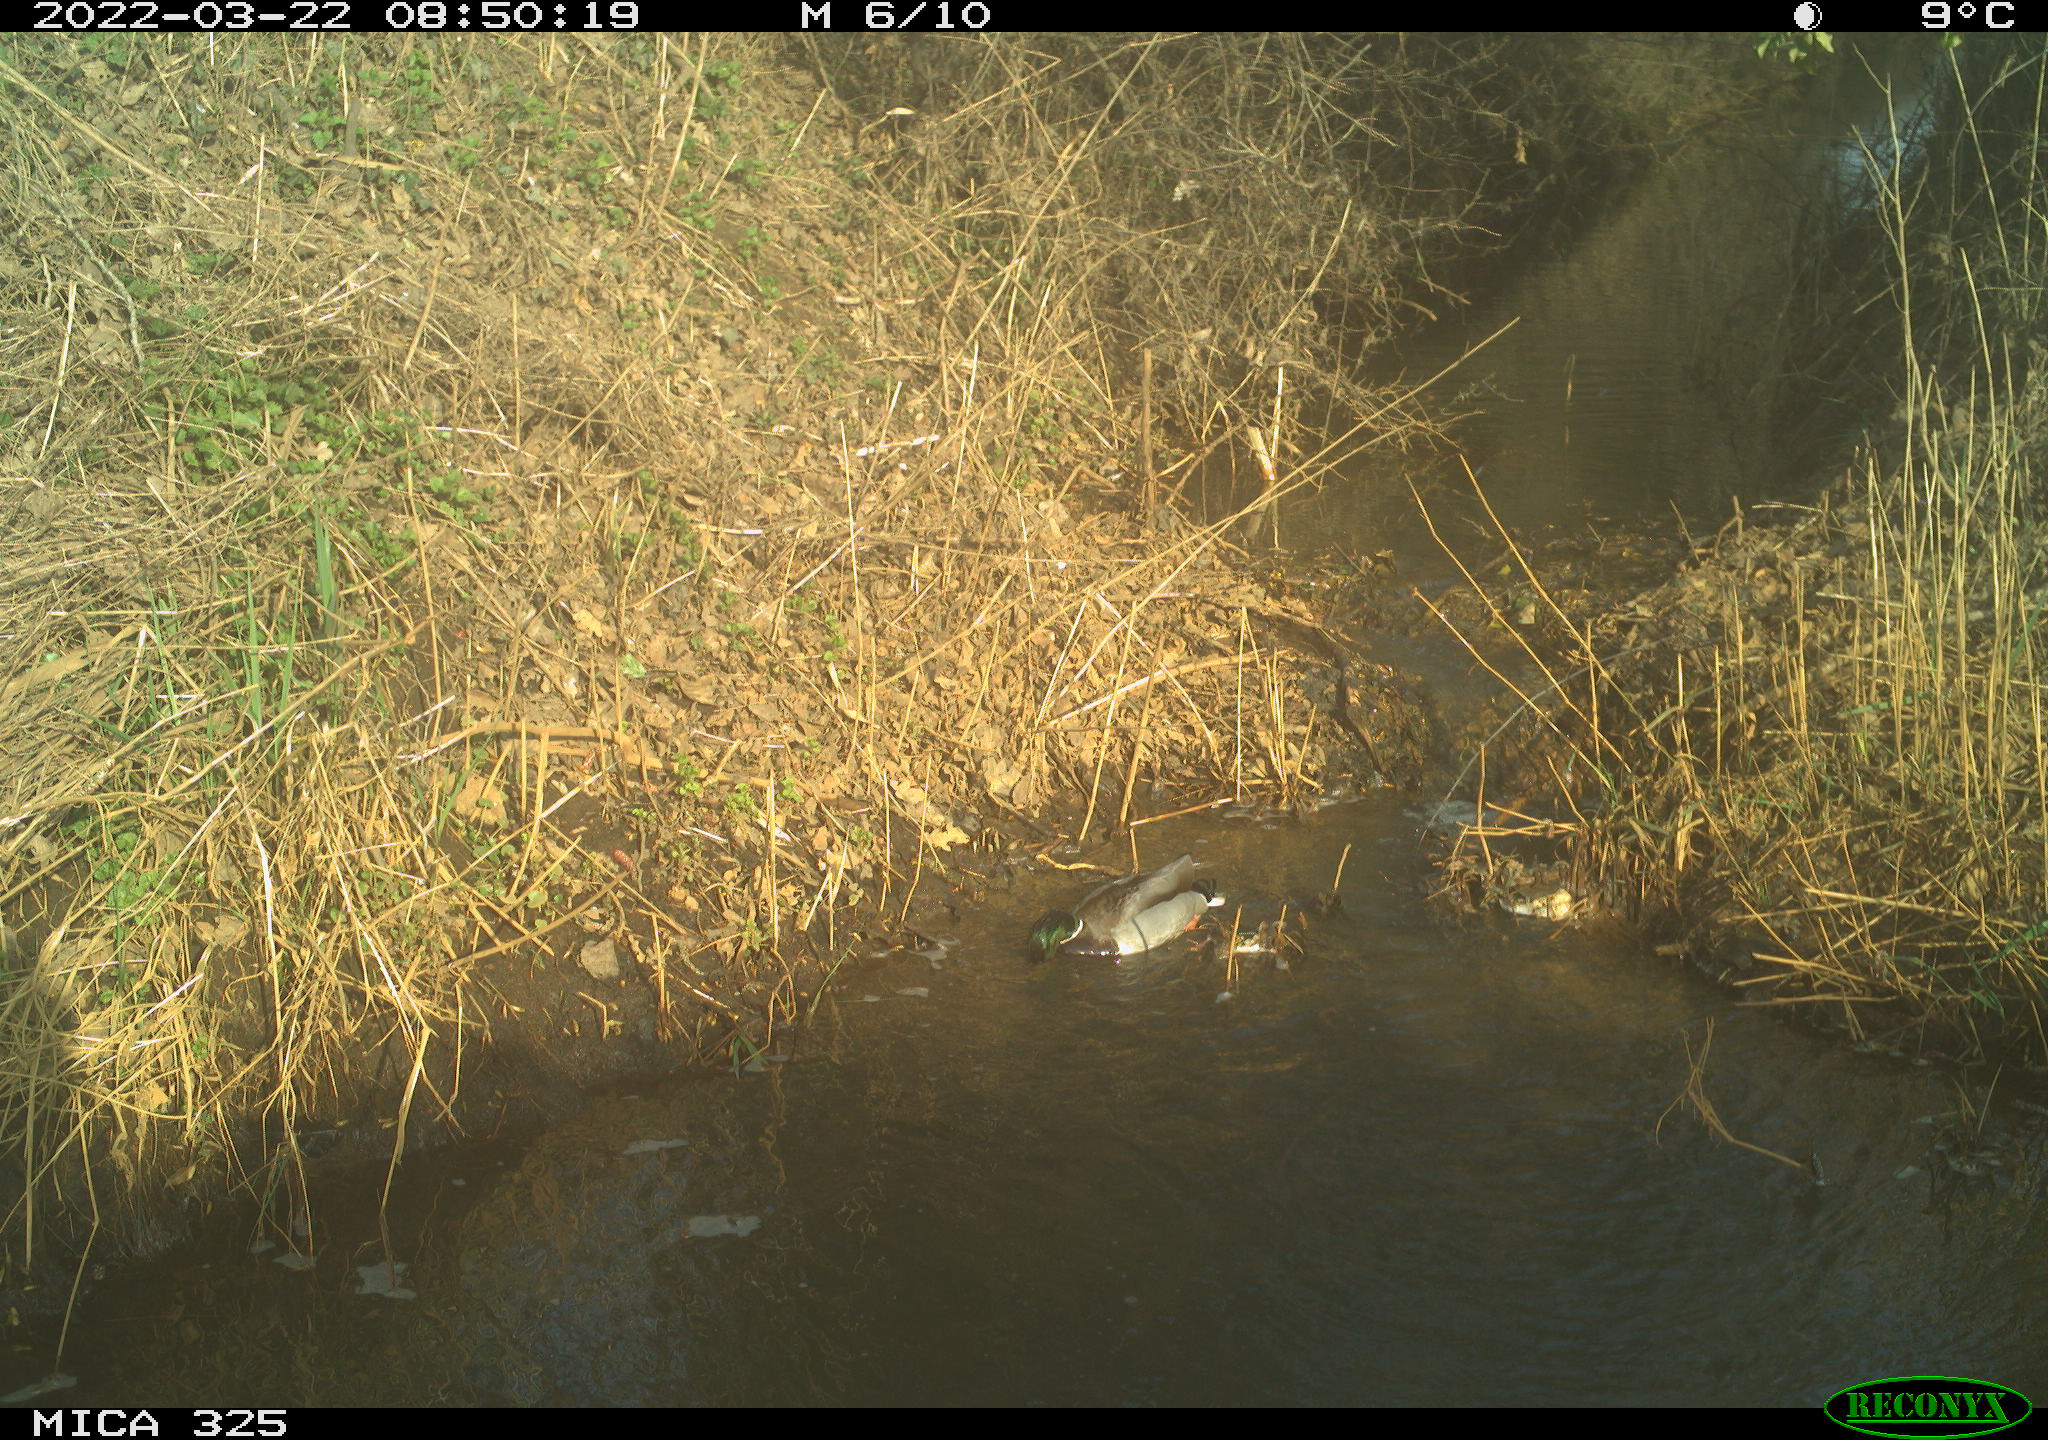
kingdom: Animalia
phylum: Chordata
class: Aves
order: Anseriformes
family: Anatidae
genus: Anas
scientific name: Anas platyrhynchos
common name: Mallard
